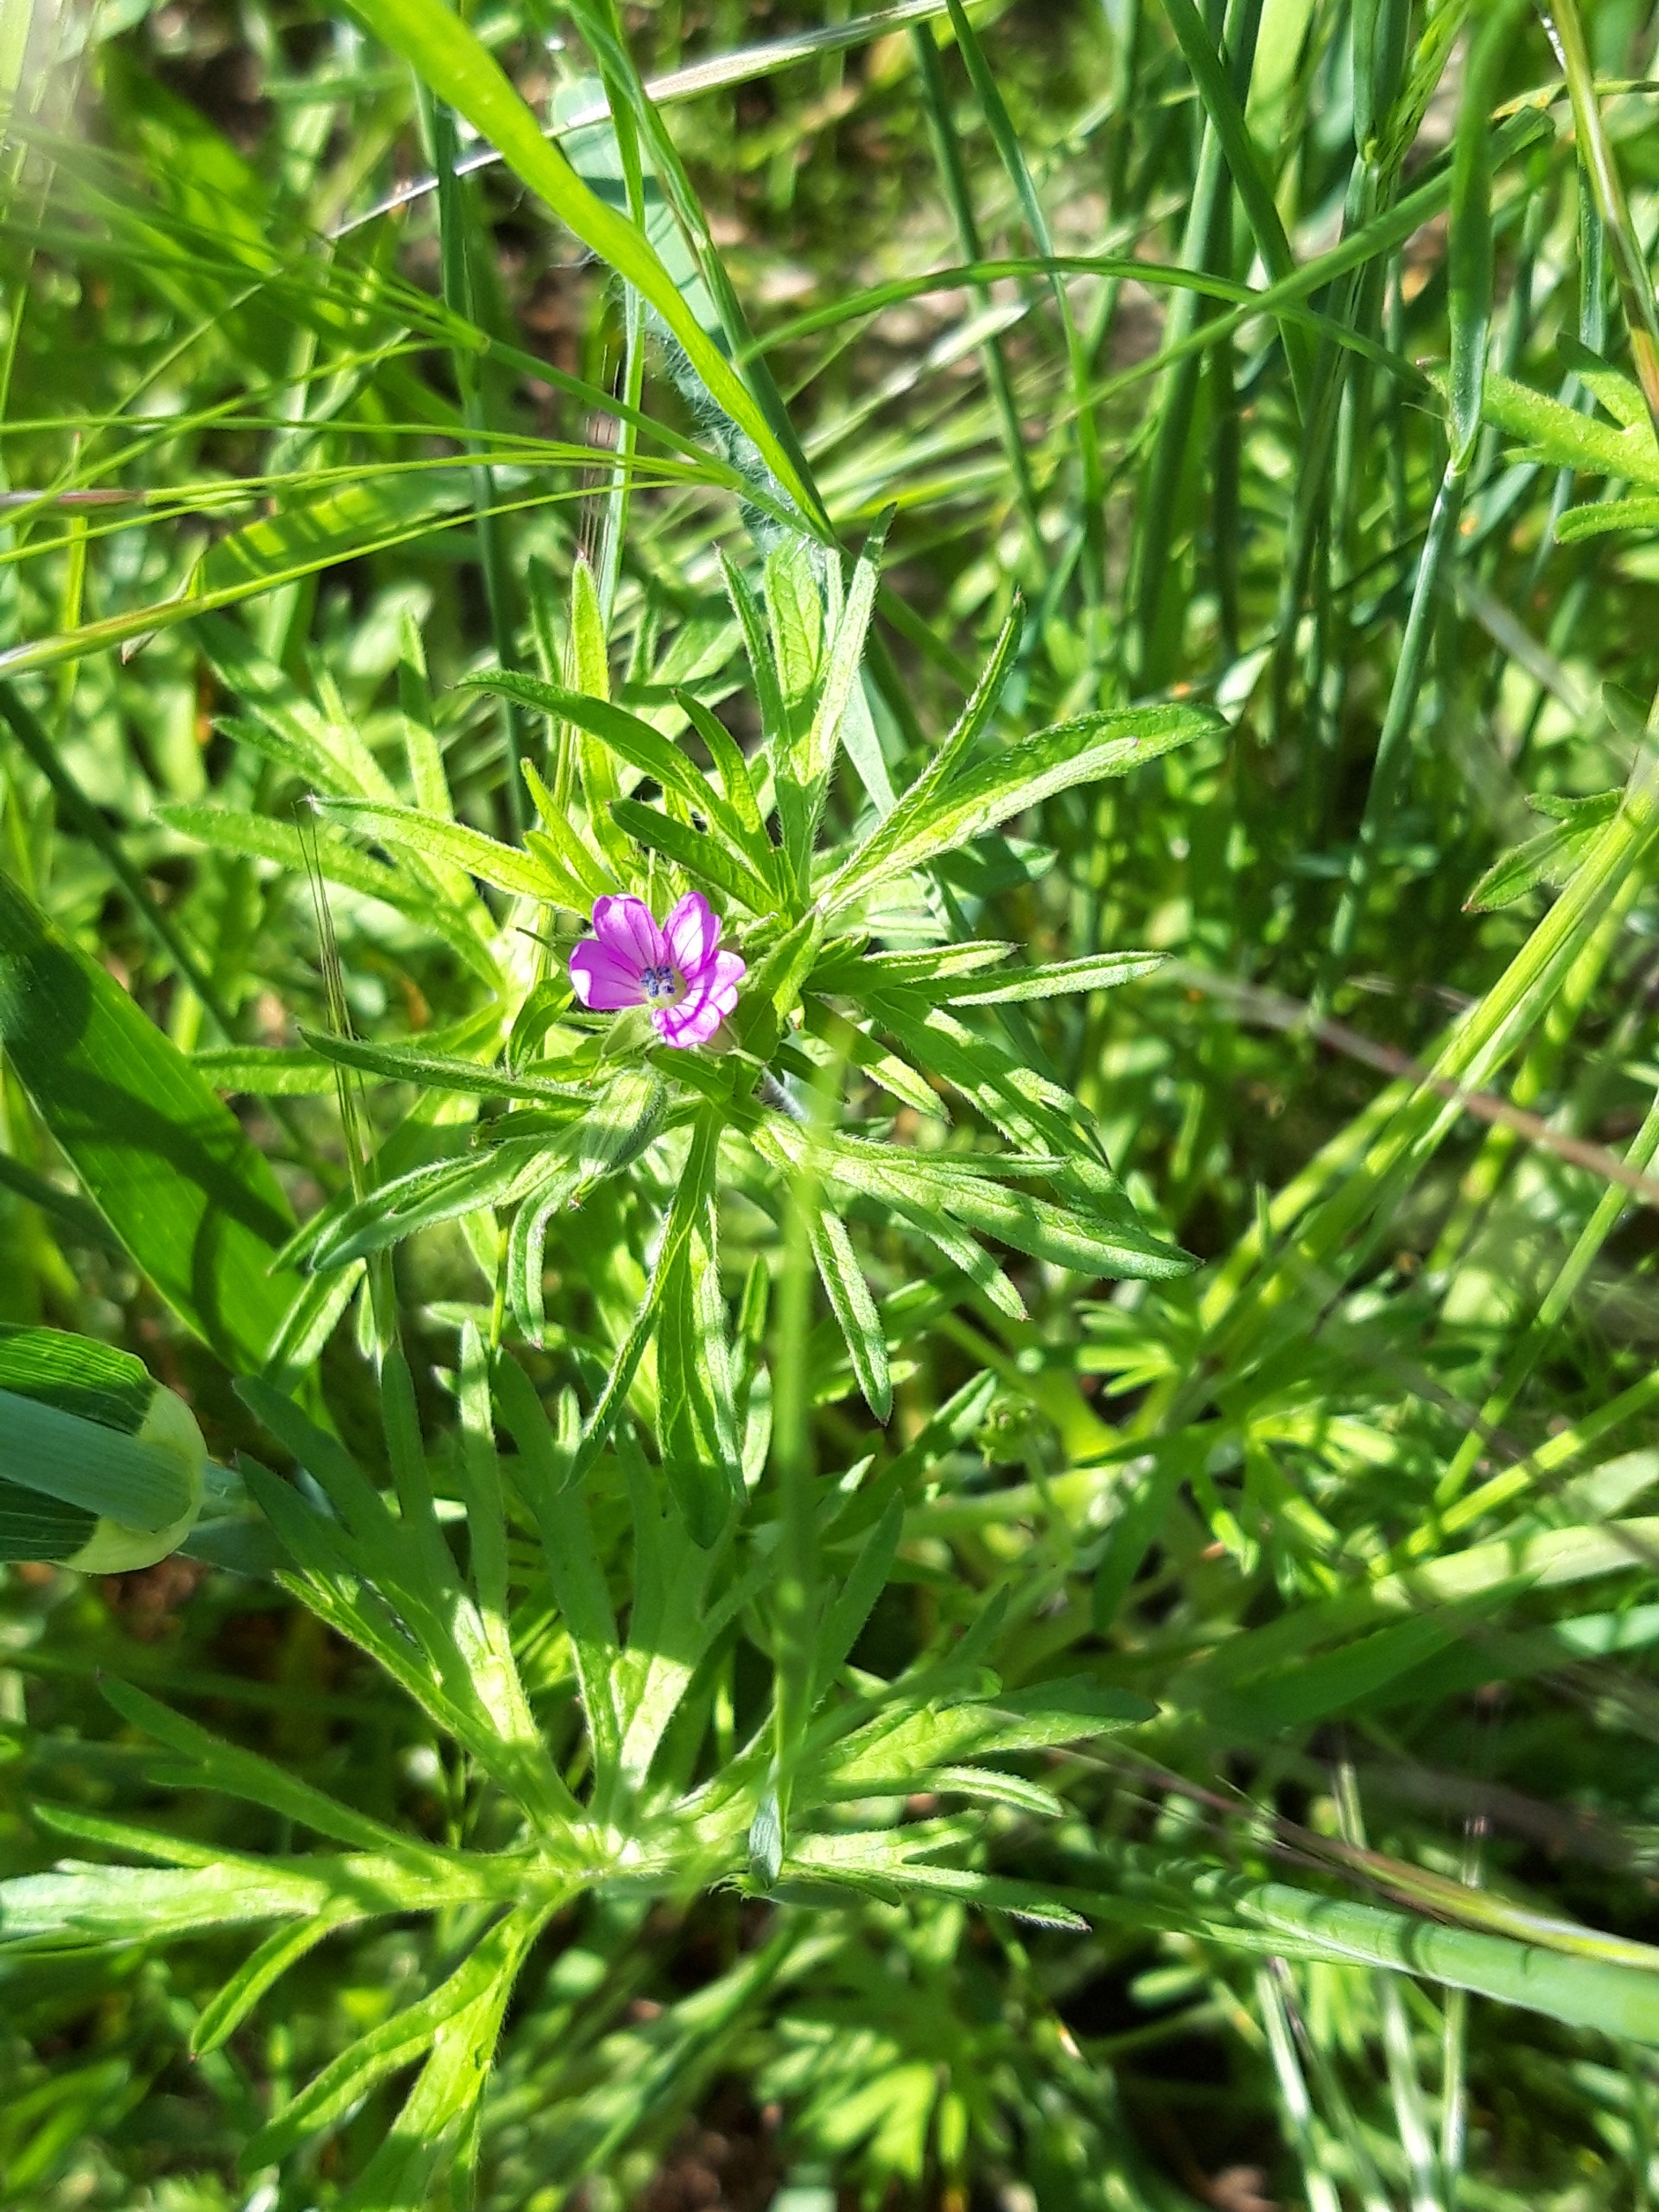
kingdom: Plantae
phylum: Tracheophyta
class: Magnoliopsida
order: Geraniales
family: Geraniaceae
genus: Geranium
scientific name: Geranium dissectum
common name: Kløftet storkenæb
